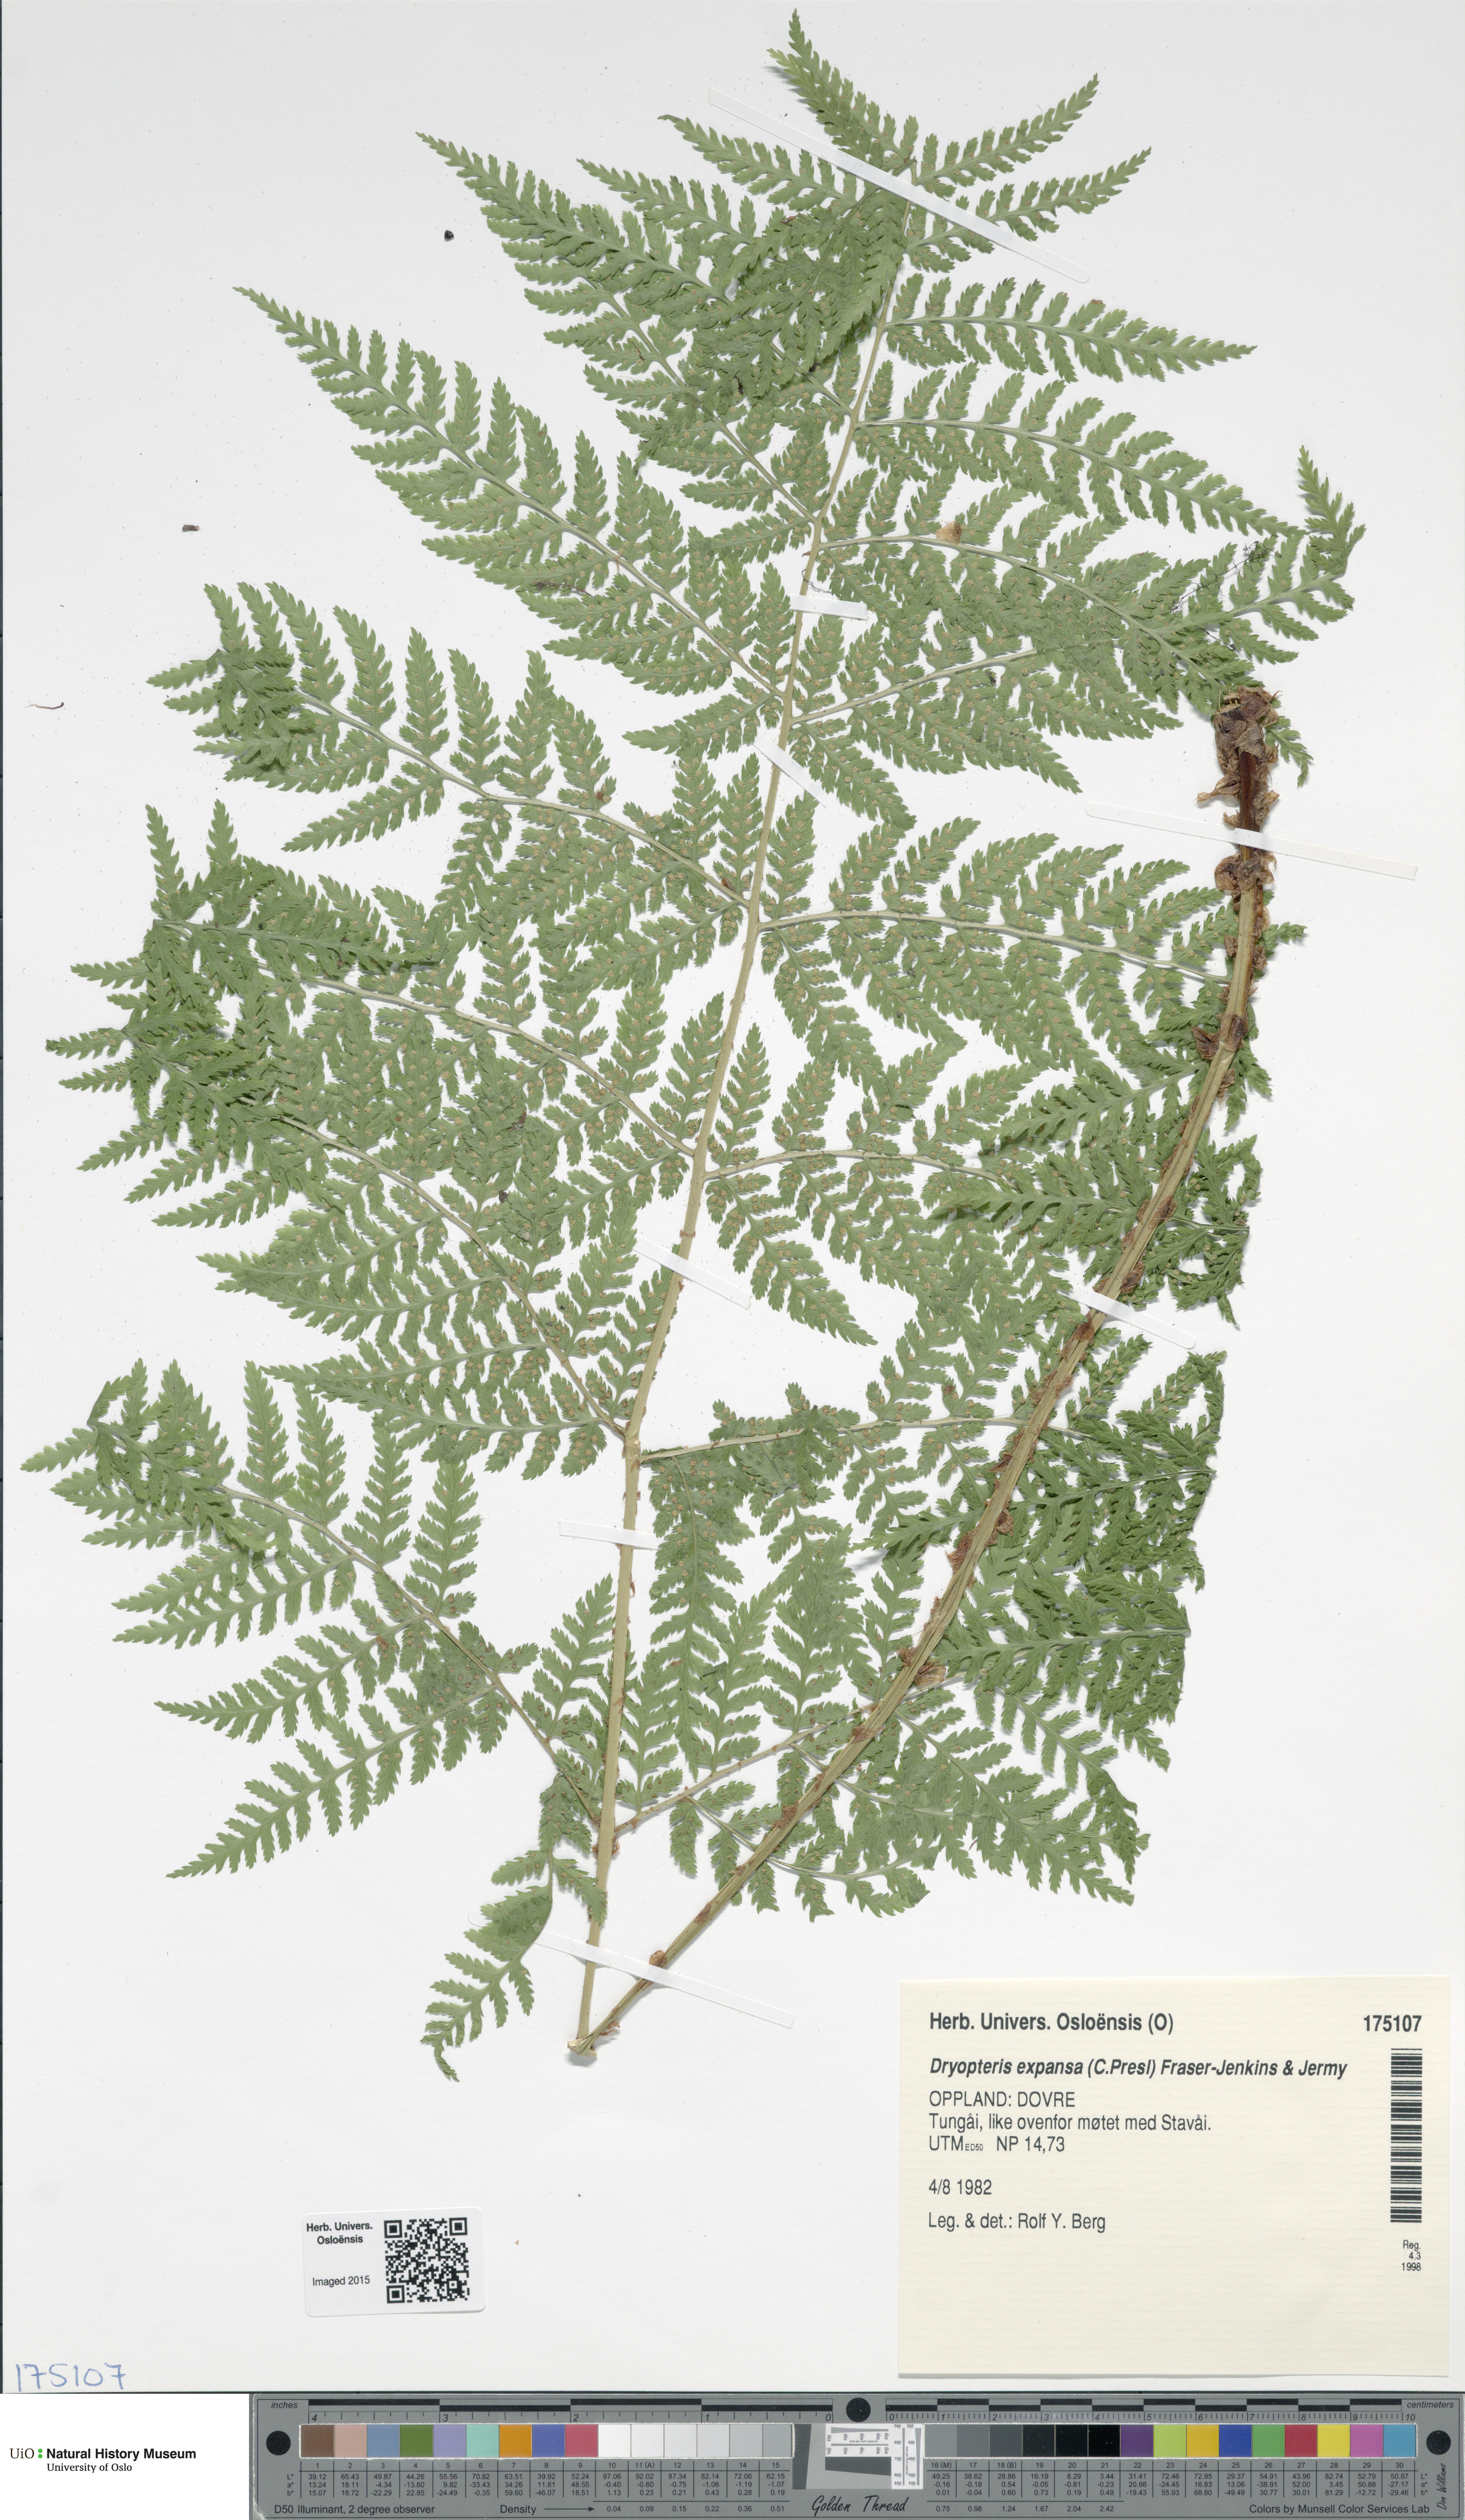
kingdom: Plantae
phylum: Tracheophyta
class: Polypodiopsida
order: Polypodiales
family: Dryopteridaceae
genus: Dryopteris
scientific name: Dryopteris expansa
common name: Northern buckler fern
